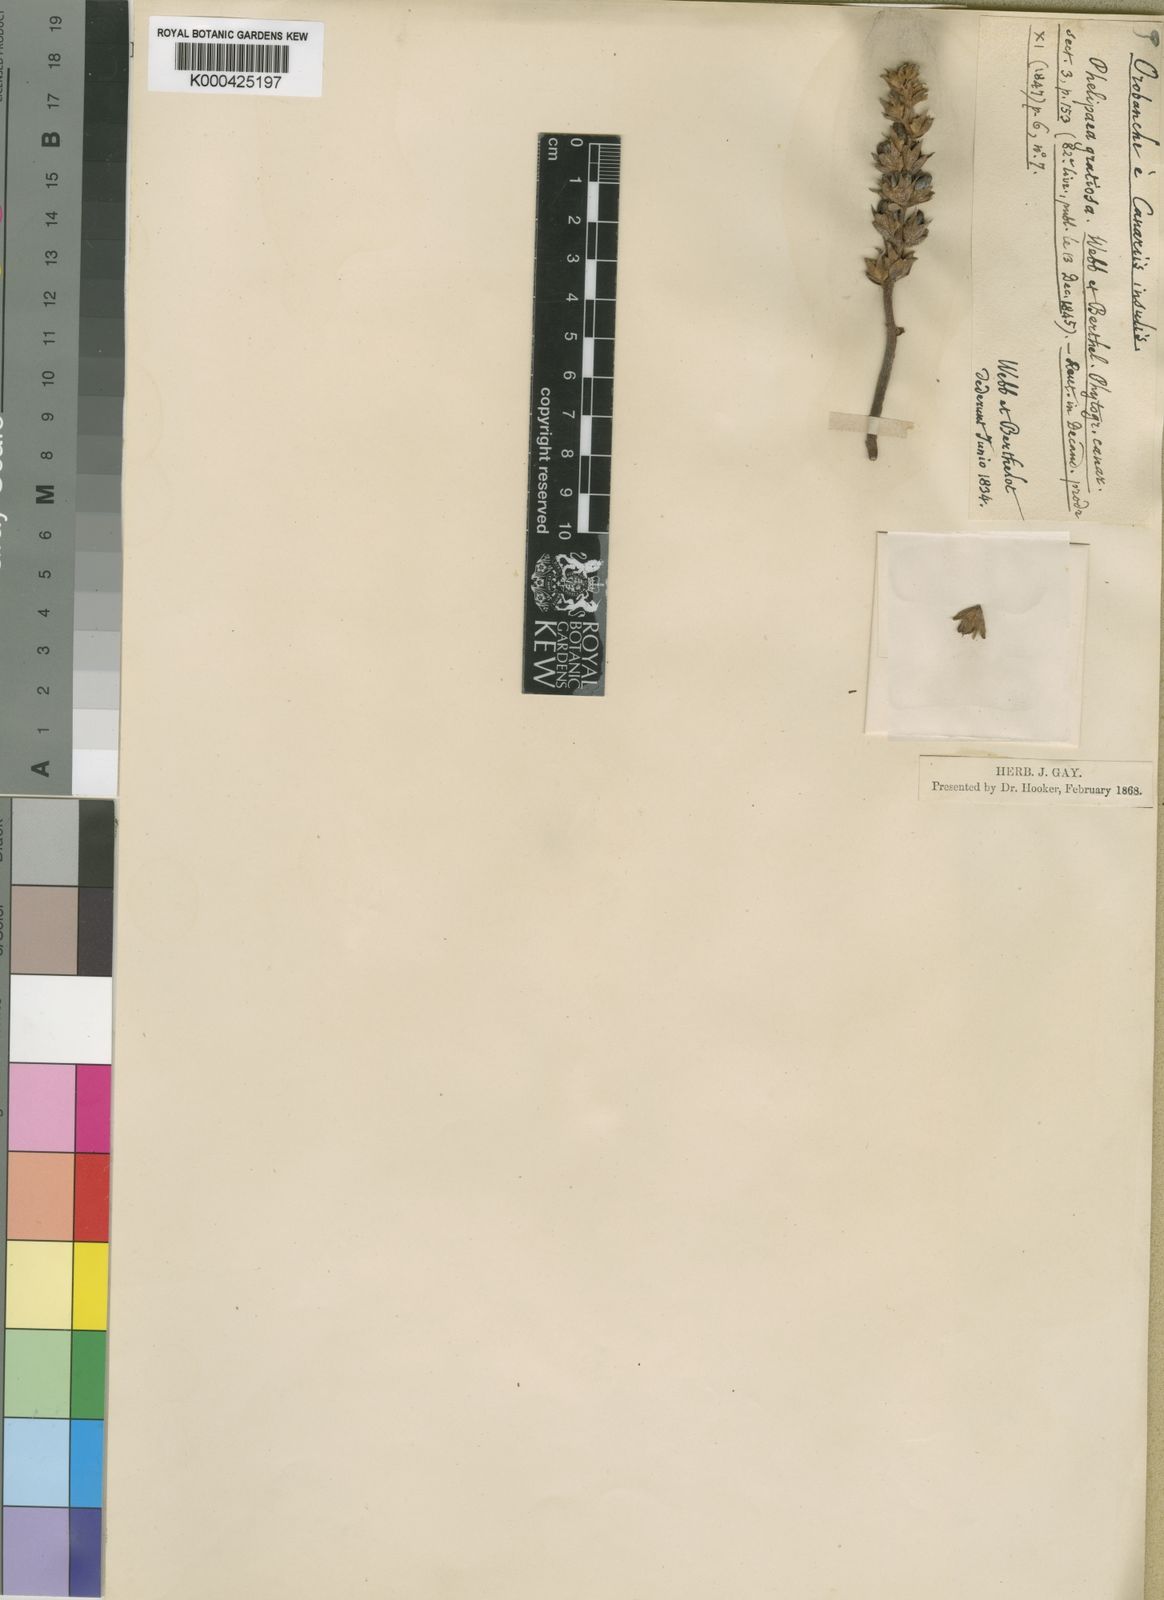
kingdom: Plantae
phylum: Tracheophyta
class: Magnoliopsida
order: Lamiales
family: Orobanchaceae
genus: Phelipanche
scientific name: Phelipanche gratiosa
